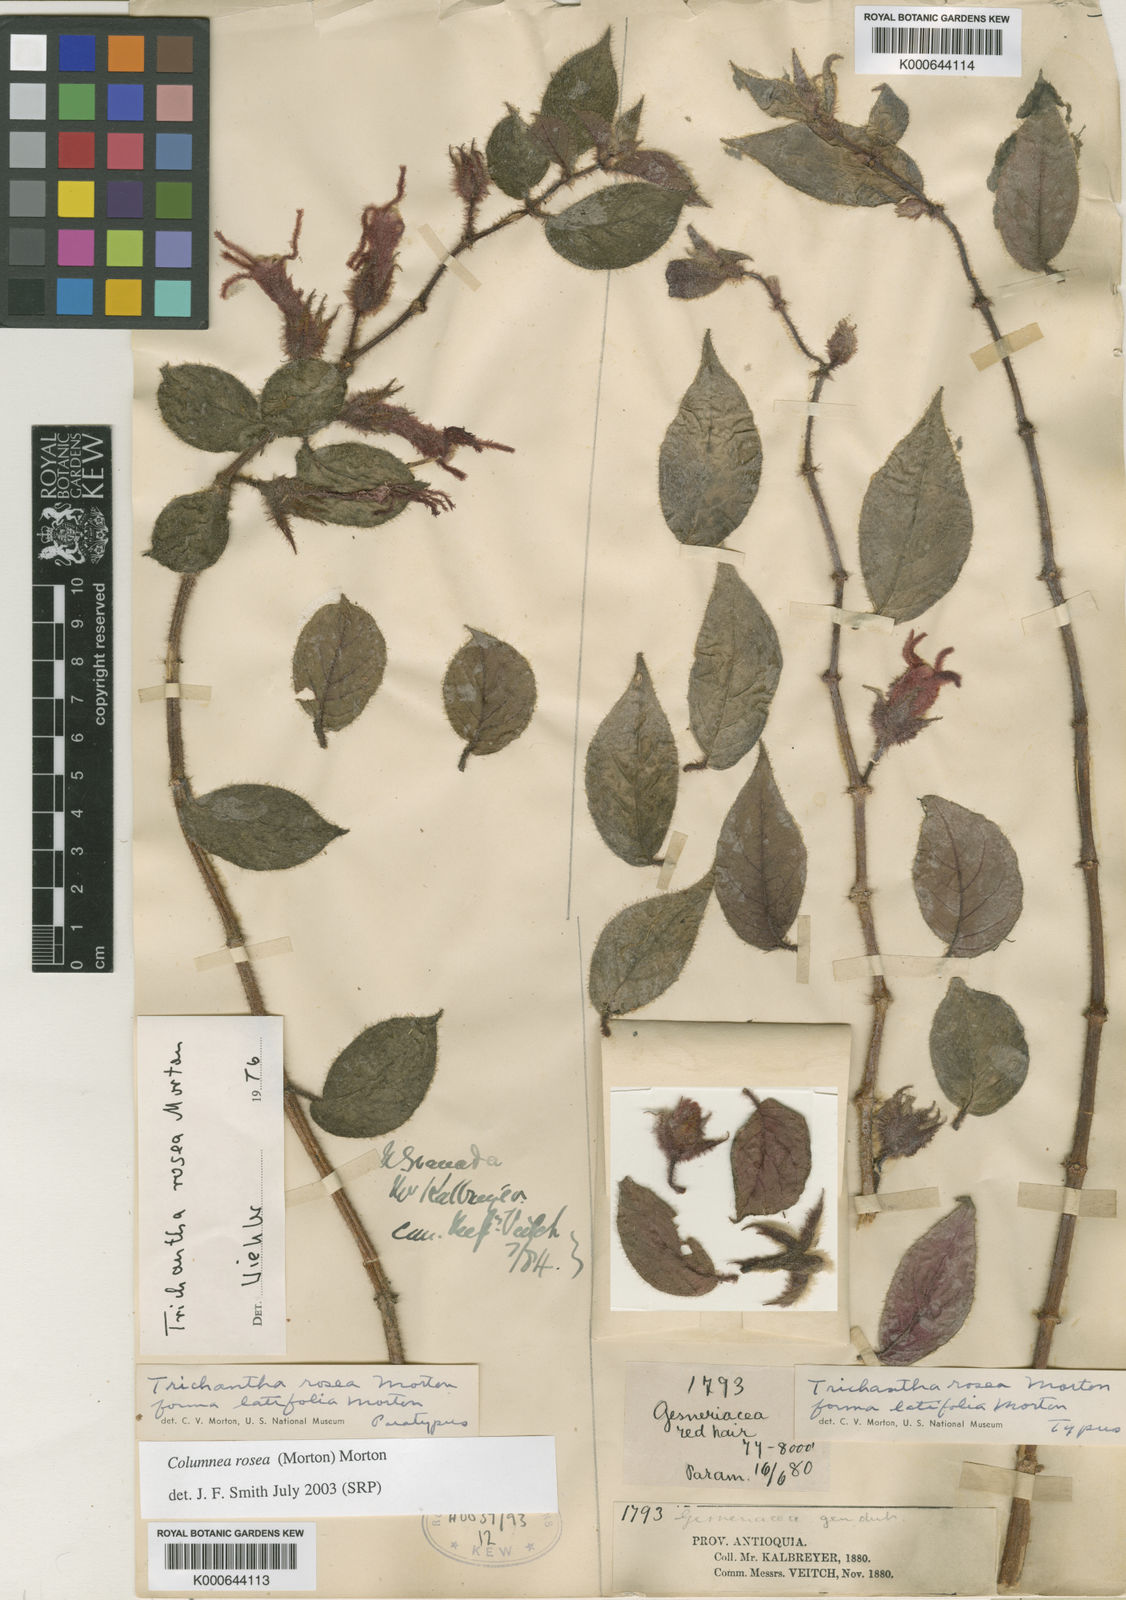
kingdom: Plantae
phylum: Tracheophyta
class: Magnoliopsida
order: Lamiales
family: Gesneriaceae
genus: Columnea
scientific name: Columnea rosea
